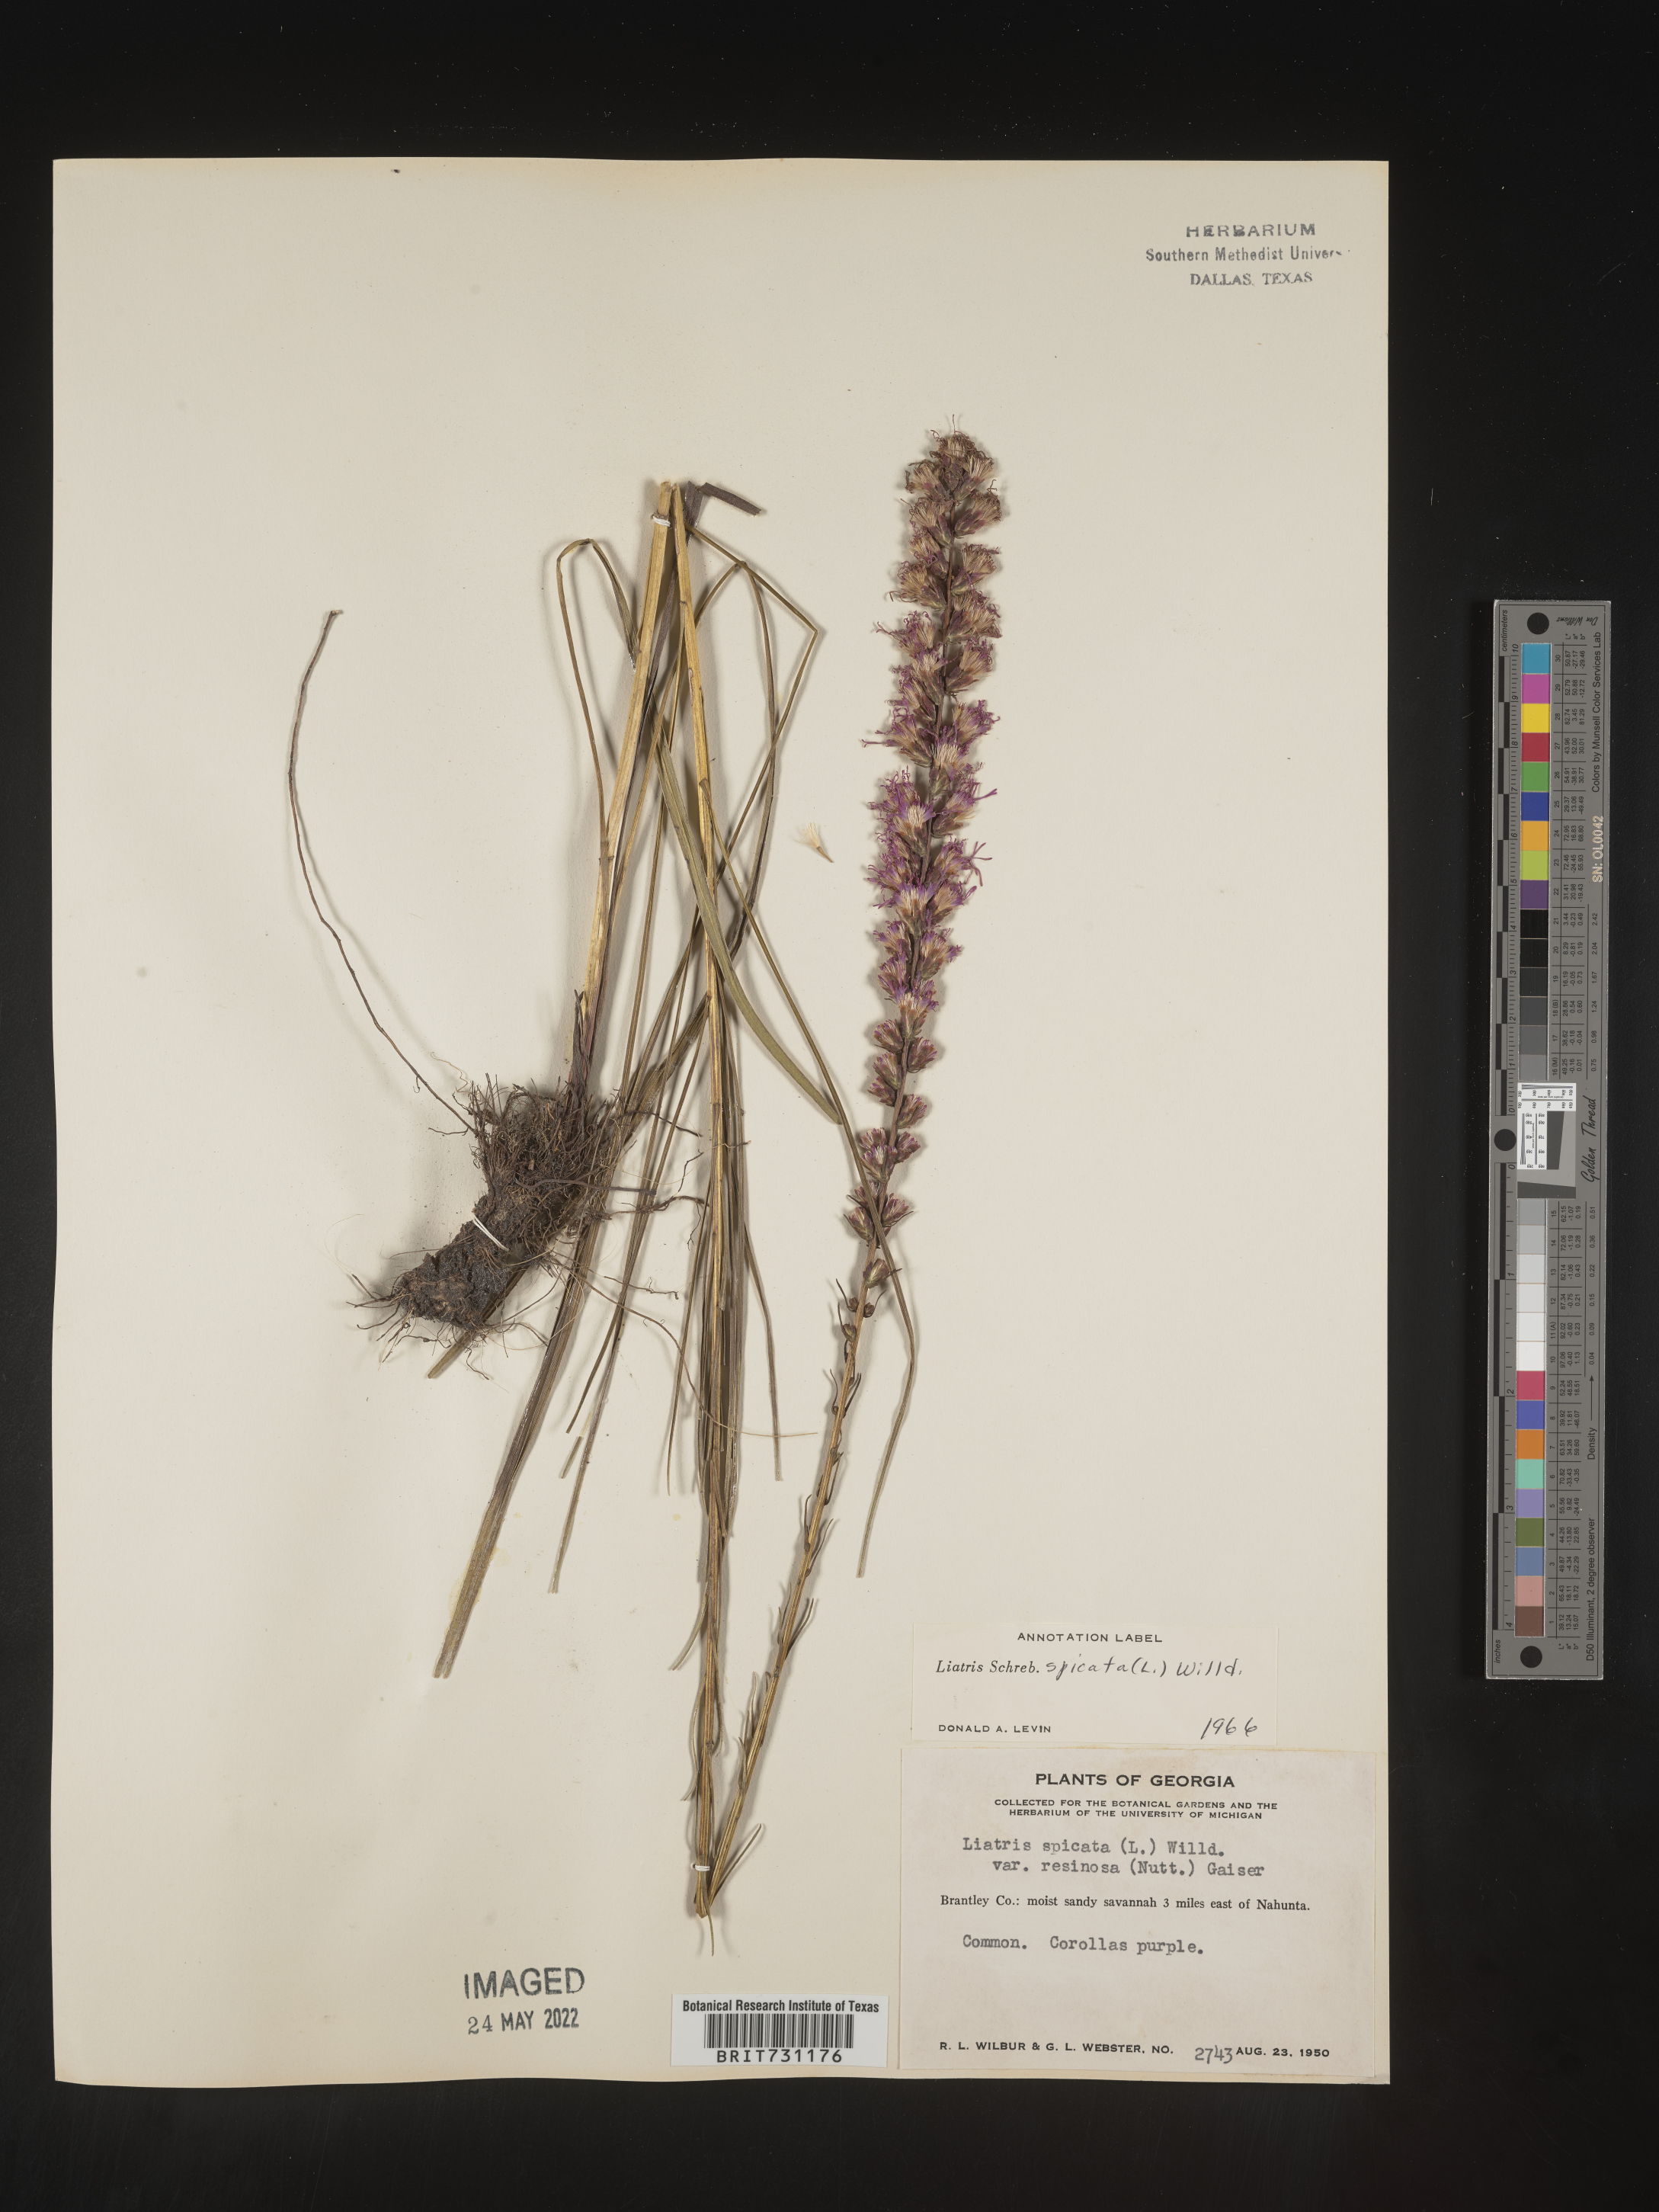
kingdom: Plantae
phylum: Tracheophyta
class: Magnoliopsida
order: Asterales
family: Asteraceae
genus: Liatris
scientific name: Liatris spicata
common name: Florist gayfeather
